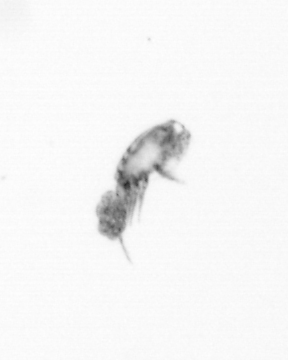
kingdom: Animalia
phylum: Arthropoda
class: Copepoda
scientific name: Copepoda
